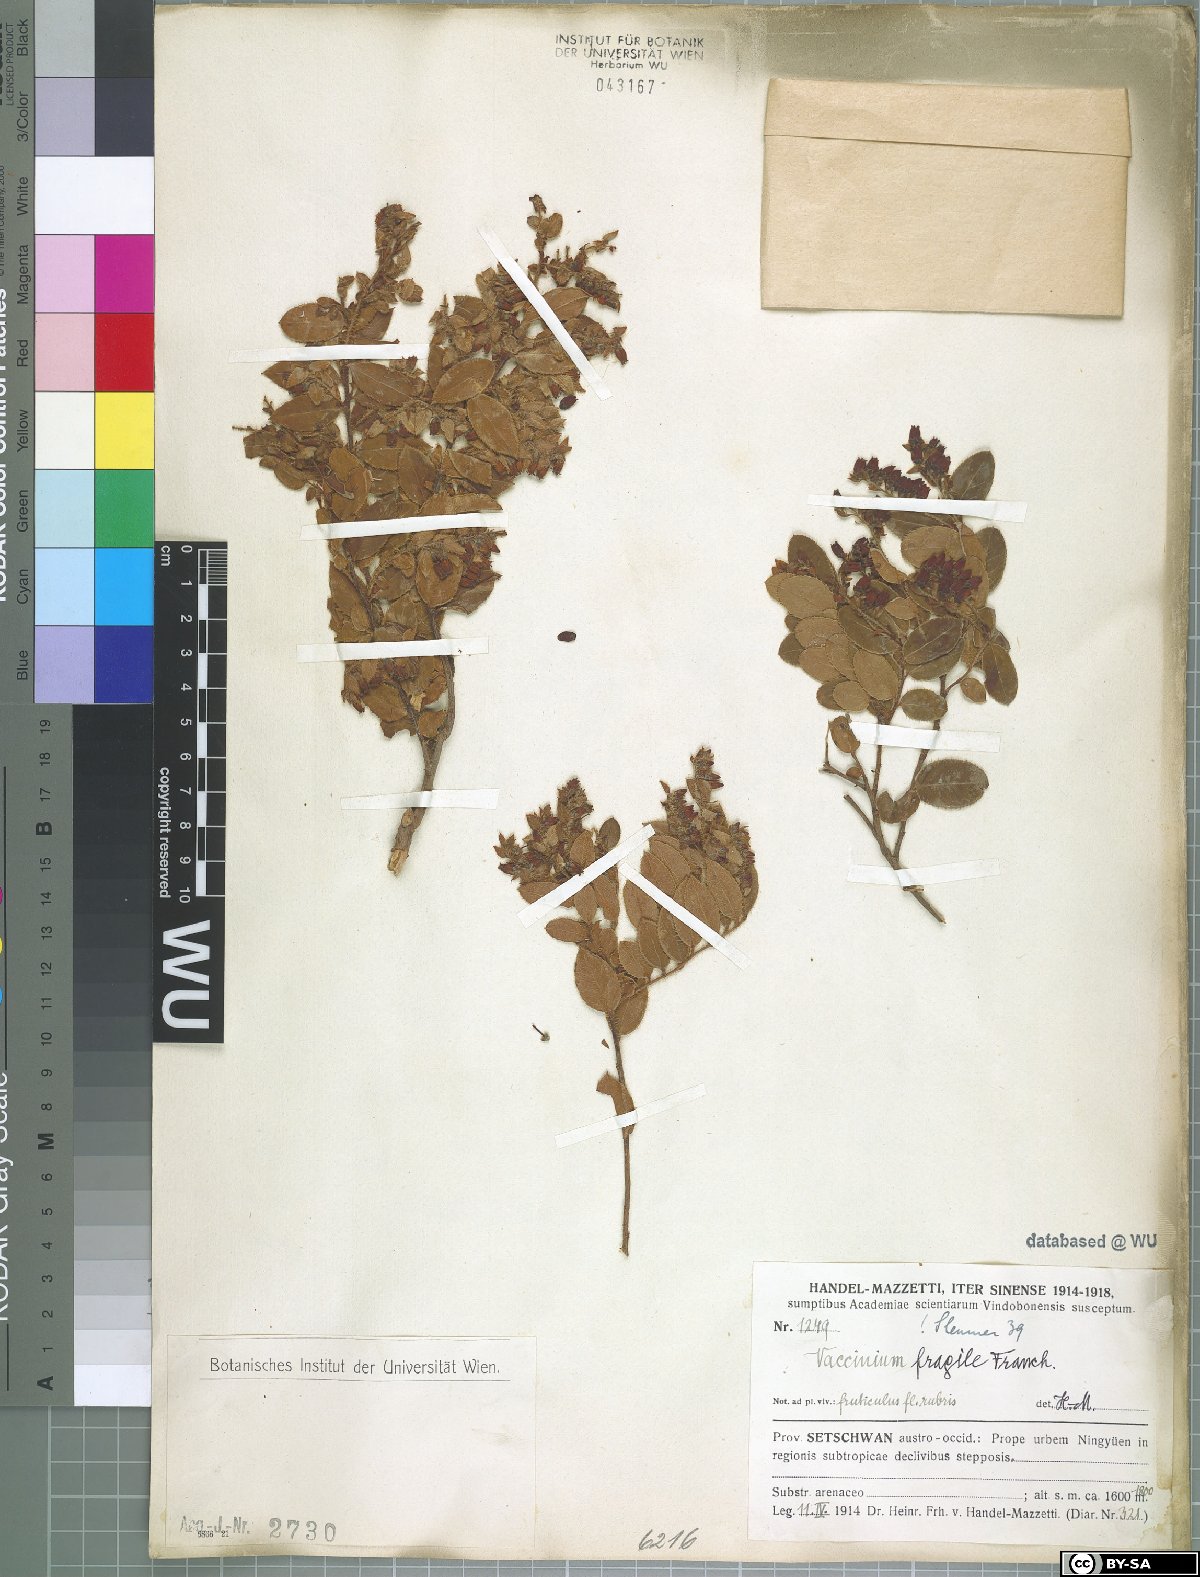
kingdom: Plantae
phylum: Tracheophyta
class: Magnoliopsida
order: Ericales
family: Ericaceae
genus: Vaccinium
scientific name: Vaccinium fragile
